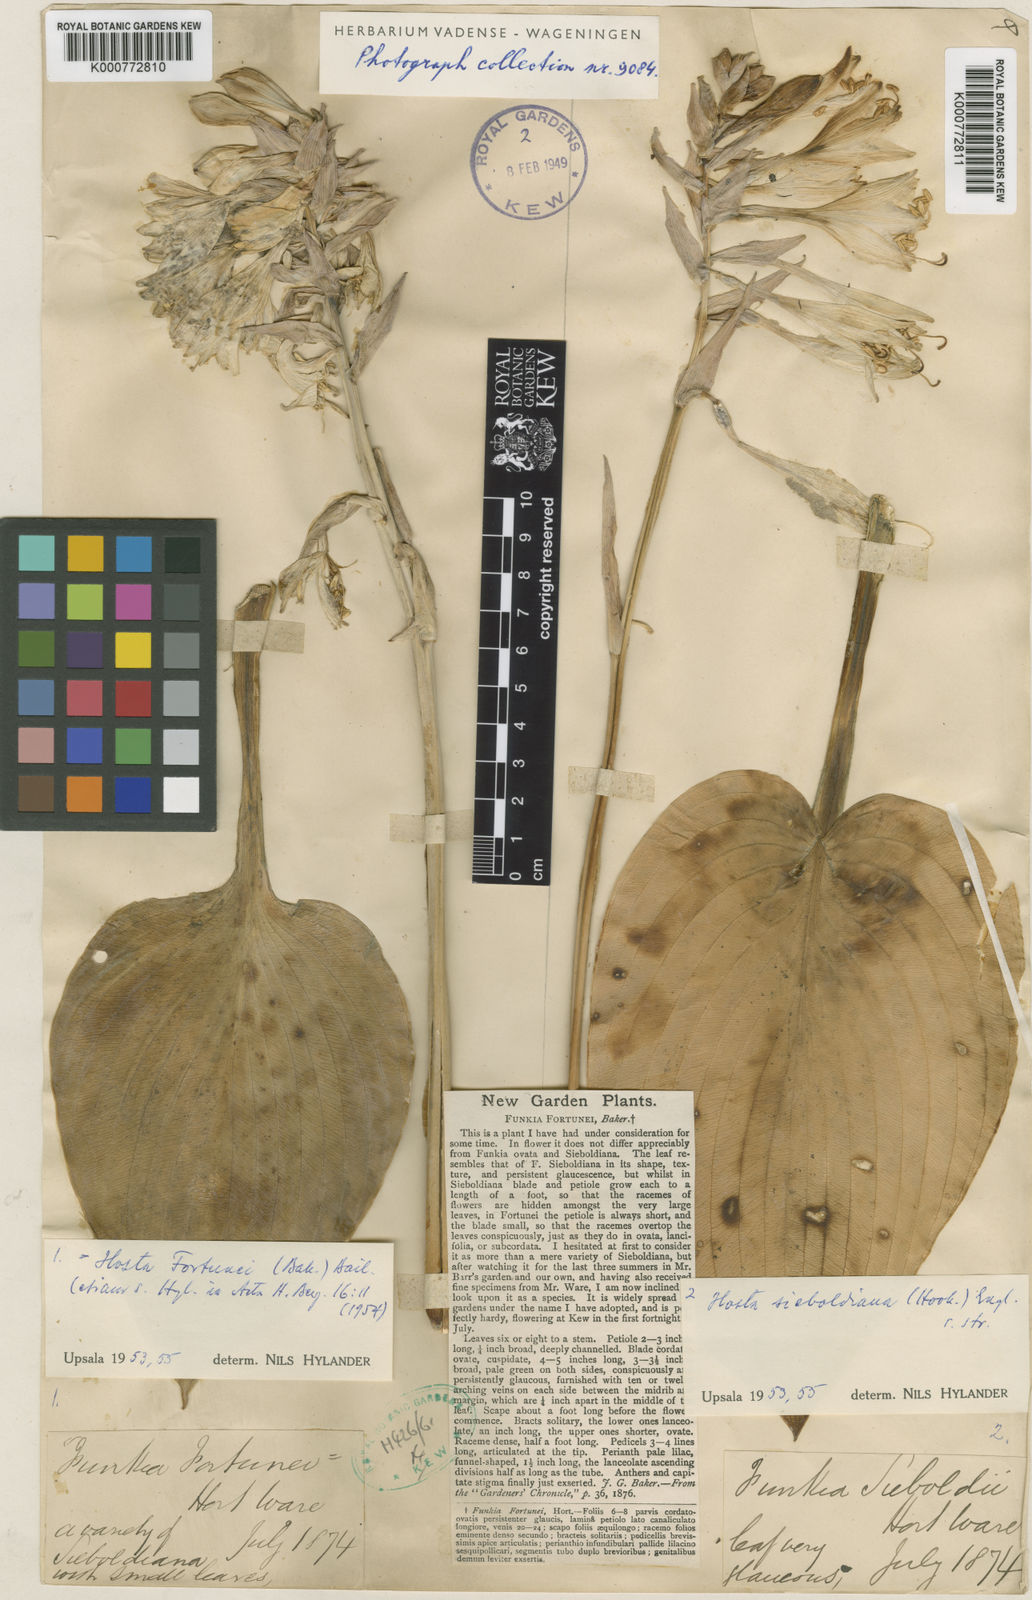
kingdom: Plantae
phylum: Tracheophyta
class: Liliopsida
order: Asparagales
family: Asparagaceae
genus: Hosta
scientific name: Hosta sieboldiana
